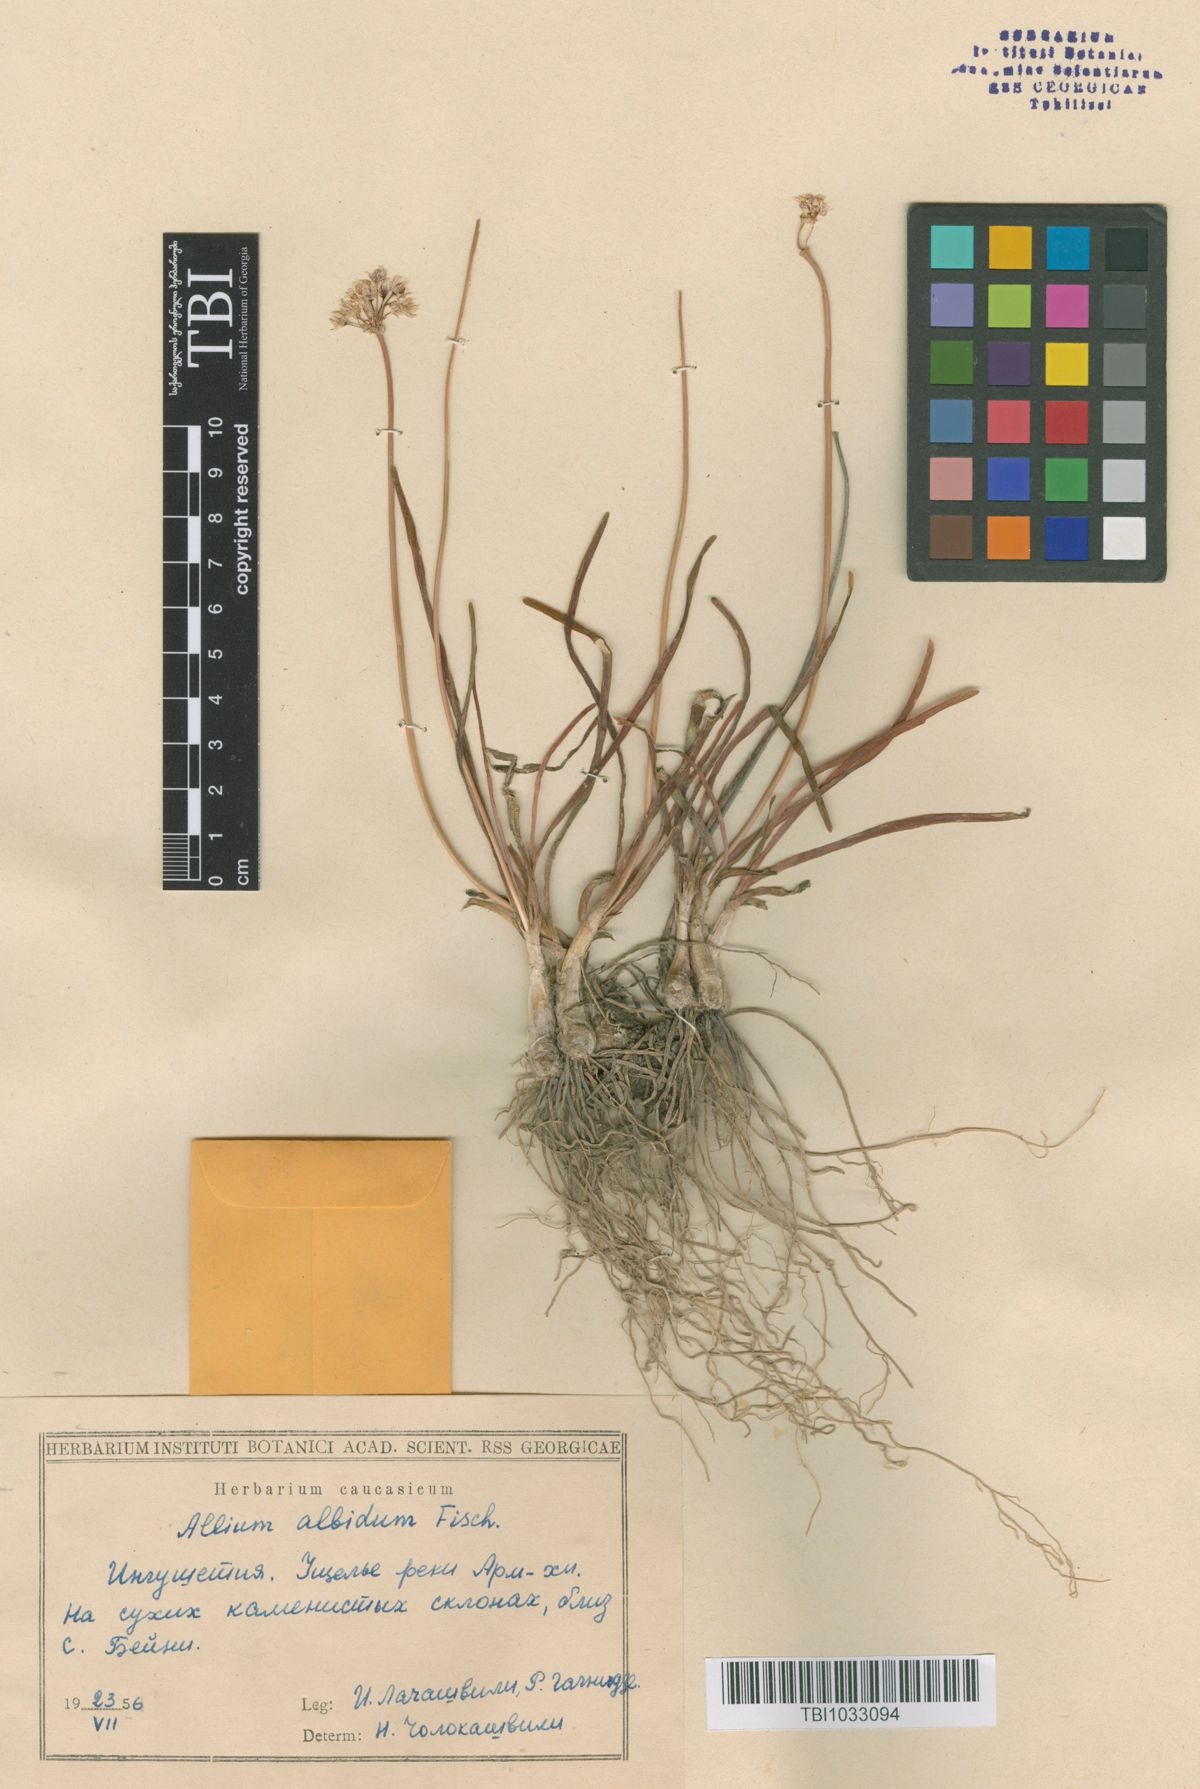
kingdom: Plantae
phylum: Tracheophyta
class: Liliopsida
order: Asparagales
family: Amaryllidaceae
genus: Allium
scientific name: Allium denudatum
